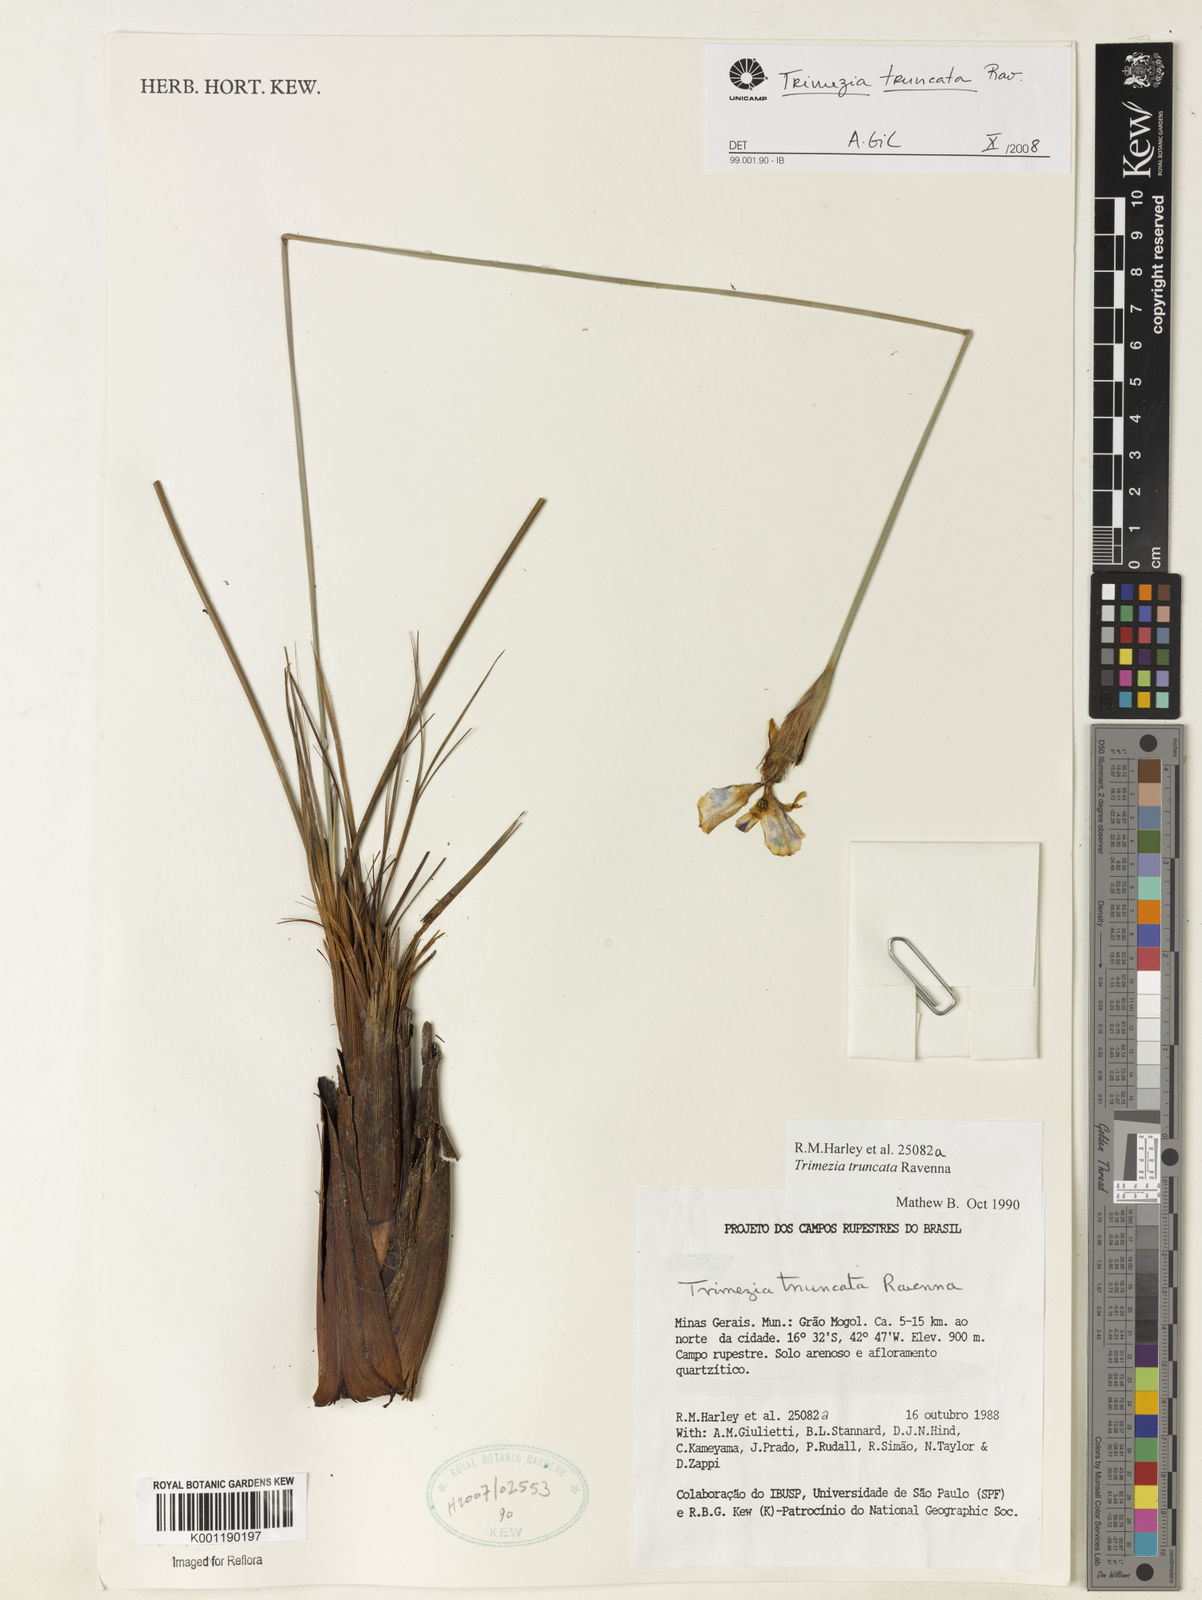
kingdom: Plantae
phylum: Tracheophyta
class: Liliopsida
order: Asparagales
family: Iridaceae
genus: Trimezia
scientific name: Trimezia truncata
